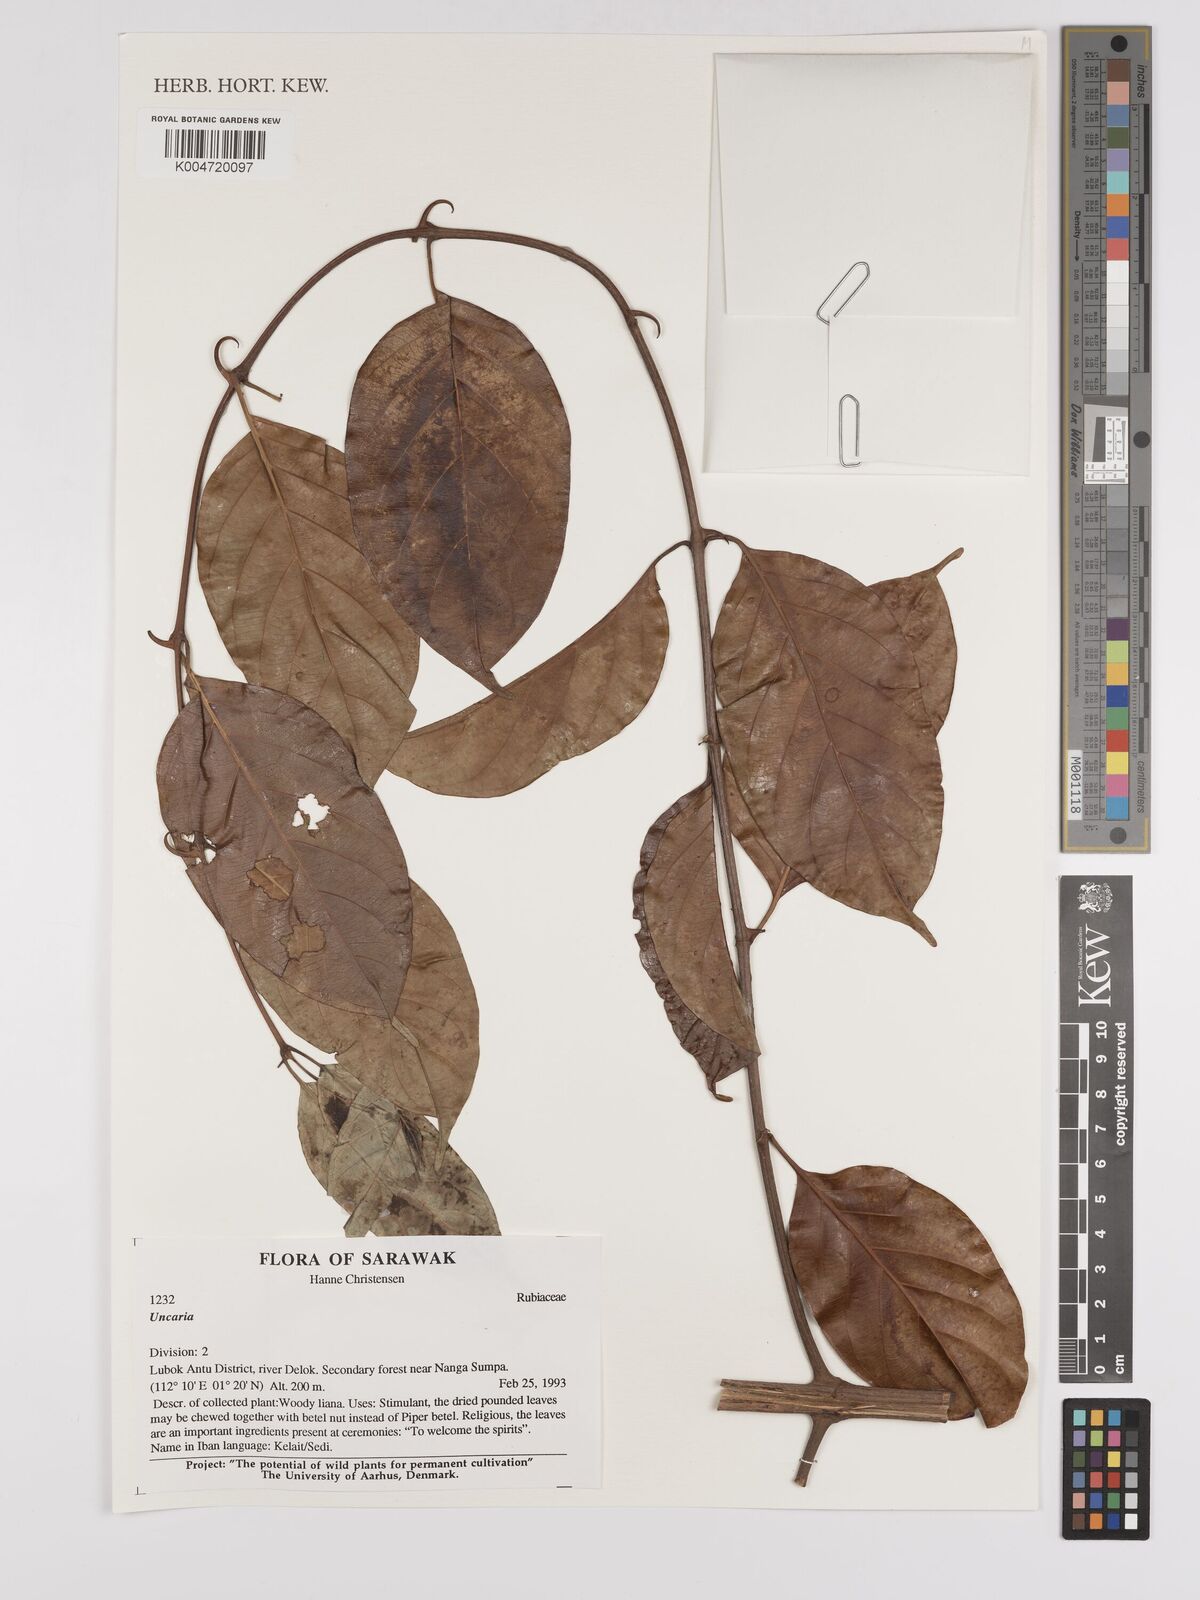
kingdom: Plantae
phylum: Tracheophyta
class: Magnoliopsida
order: Gentianales
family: Rubiaceae
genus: Uncaria
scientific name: Uncaria
